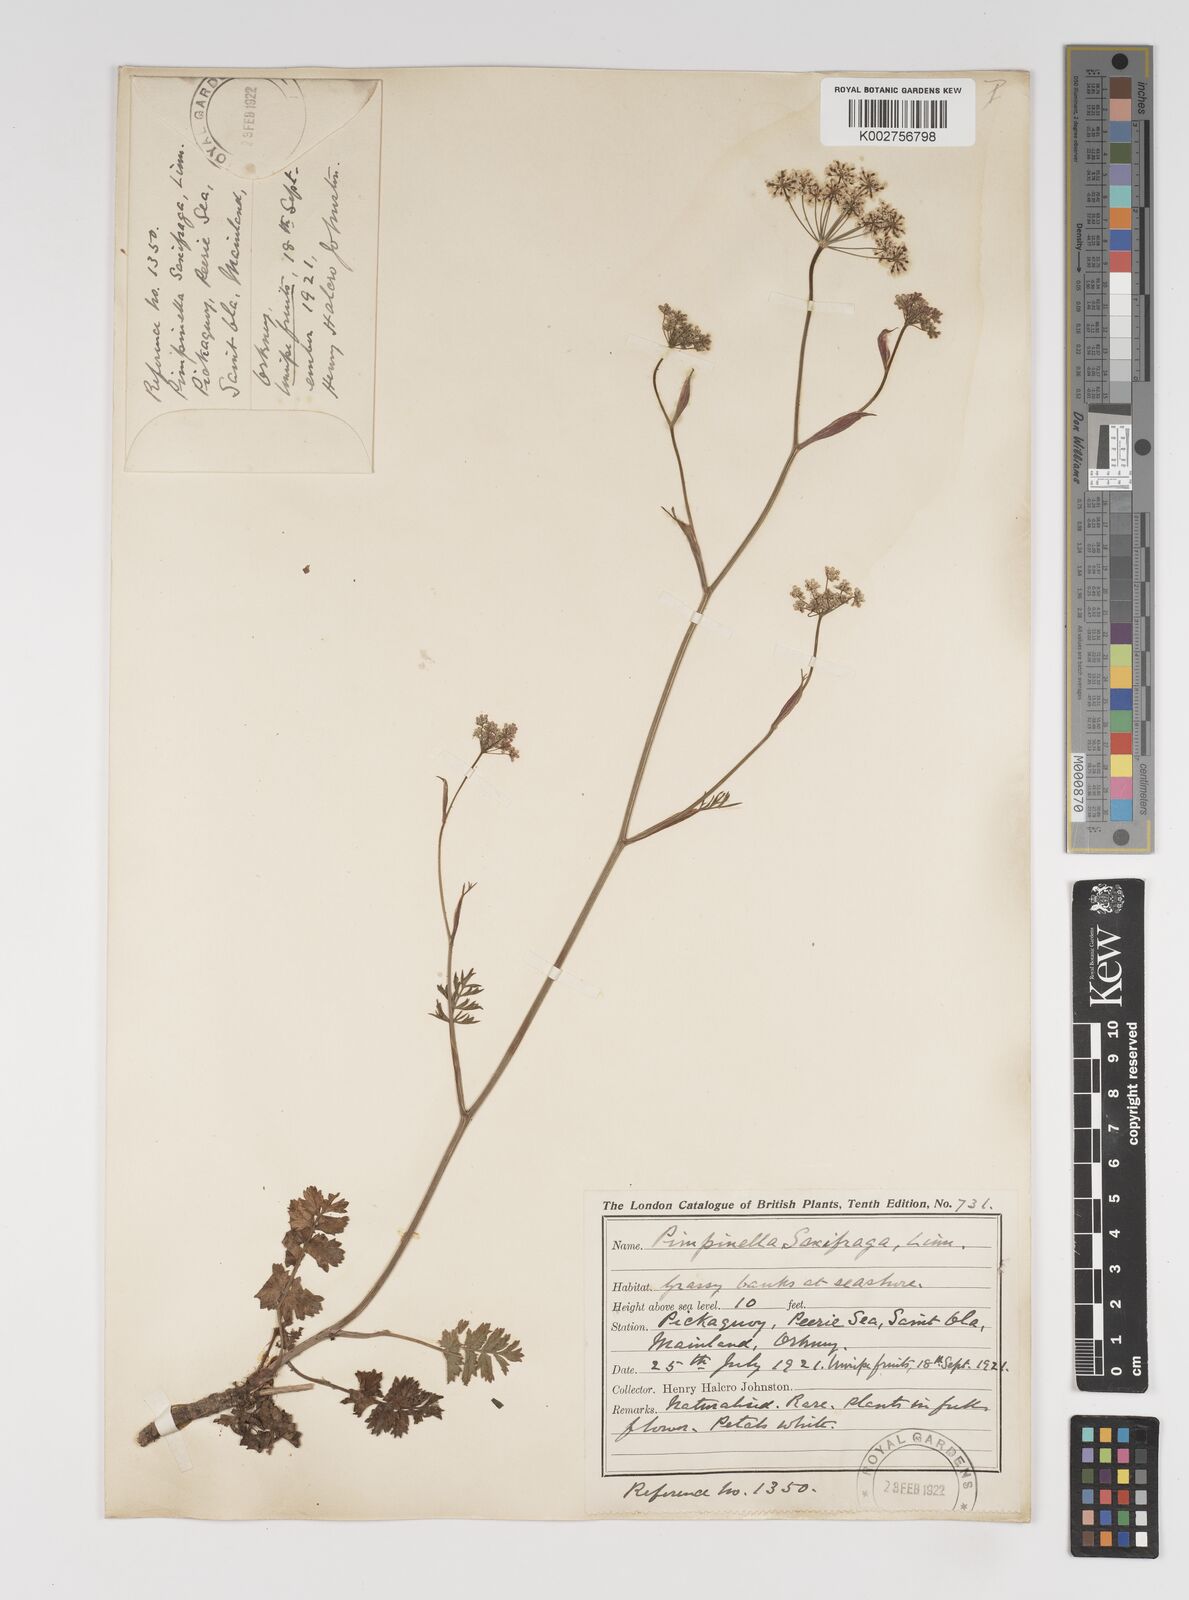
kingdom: Plantae
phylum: Tracheophyta
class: Magnoliopsida
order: Apiales
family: Apiaceae
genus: Pimpinella
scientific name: Pimpinella saxifraga
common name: Burnet-saxifrage
